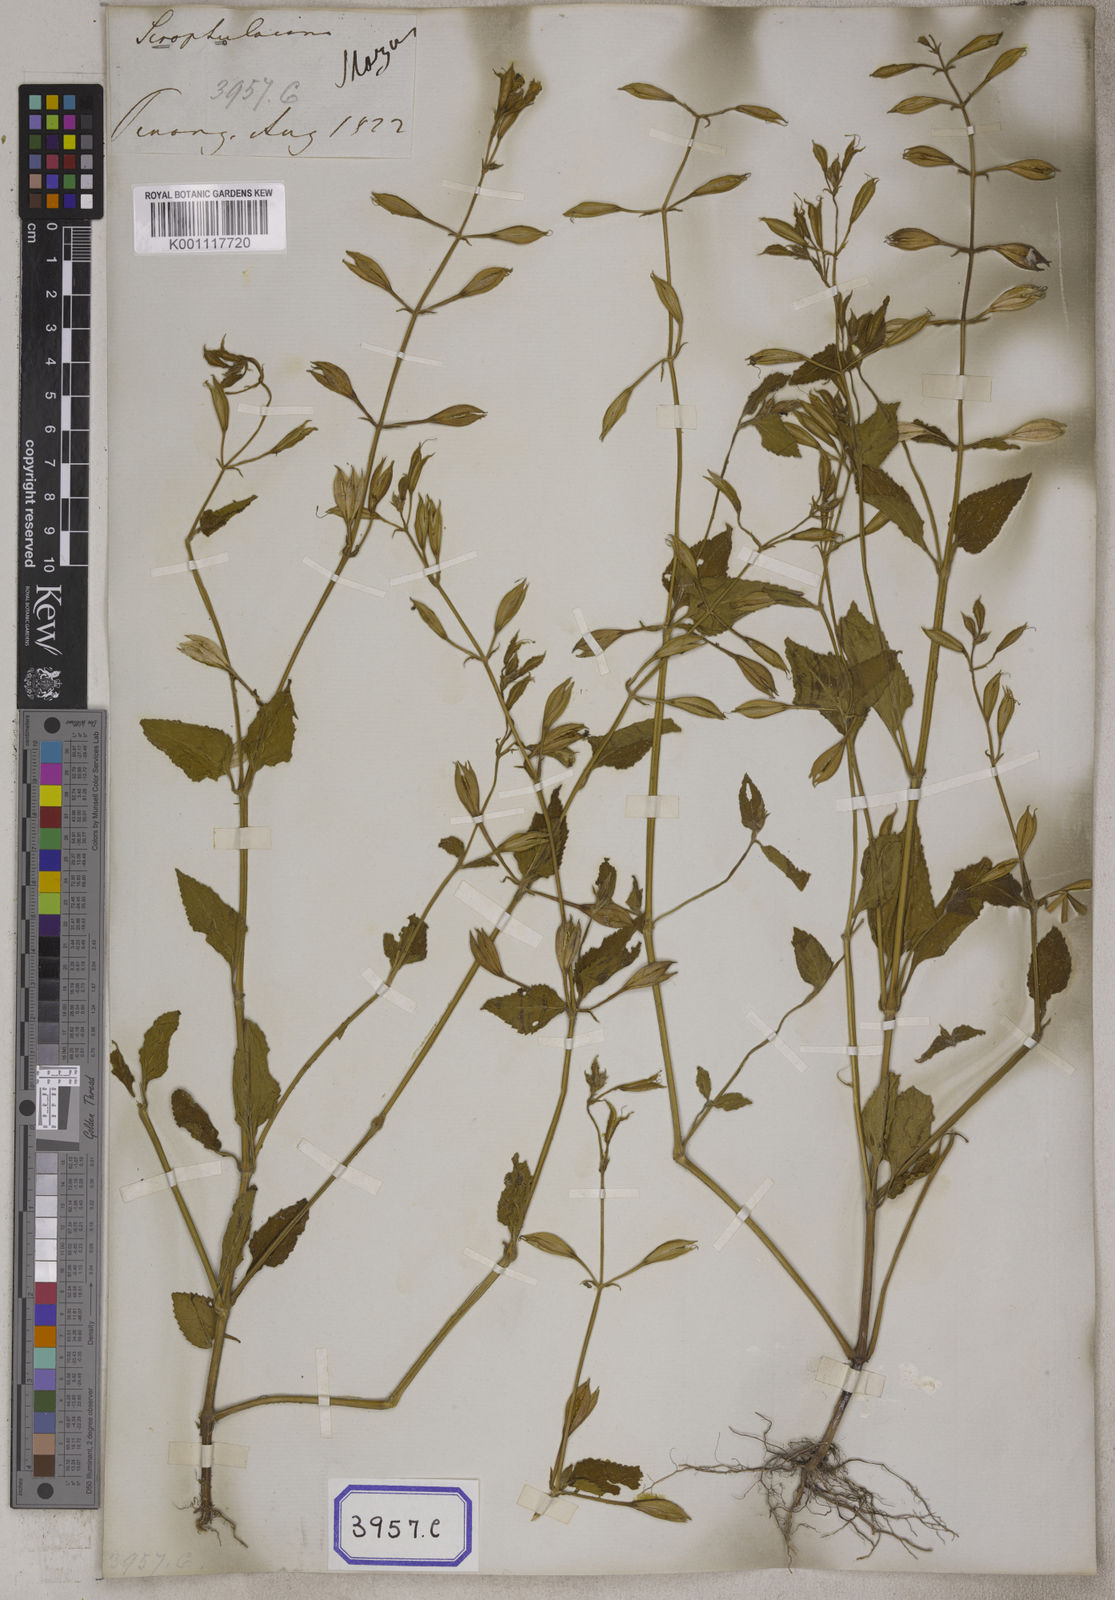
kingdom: Plantae
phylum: Tracheophyta
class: Magnoliopsida
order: Lamiales
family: Linderniaceae
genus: Torenia
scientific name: Torenia
